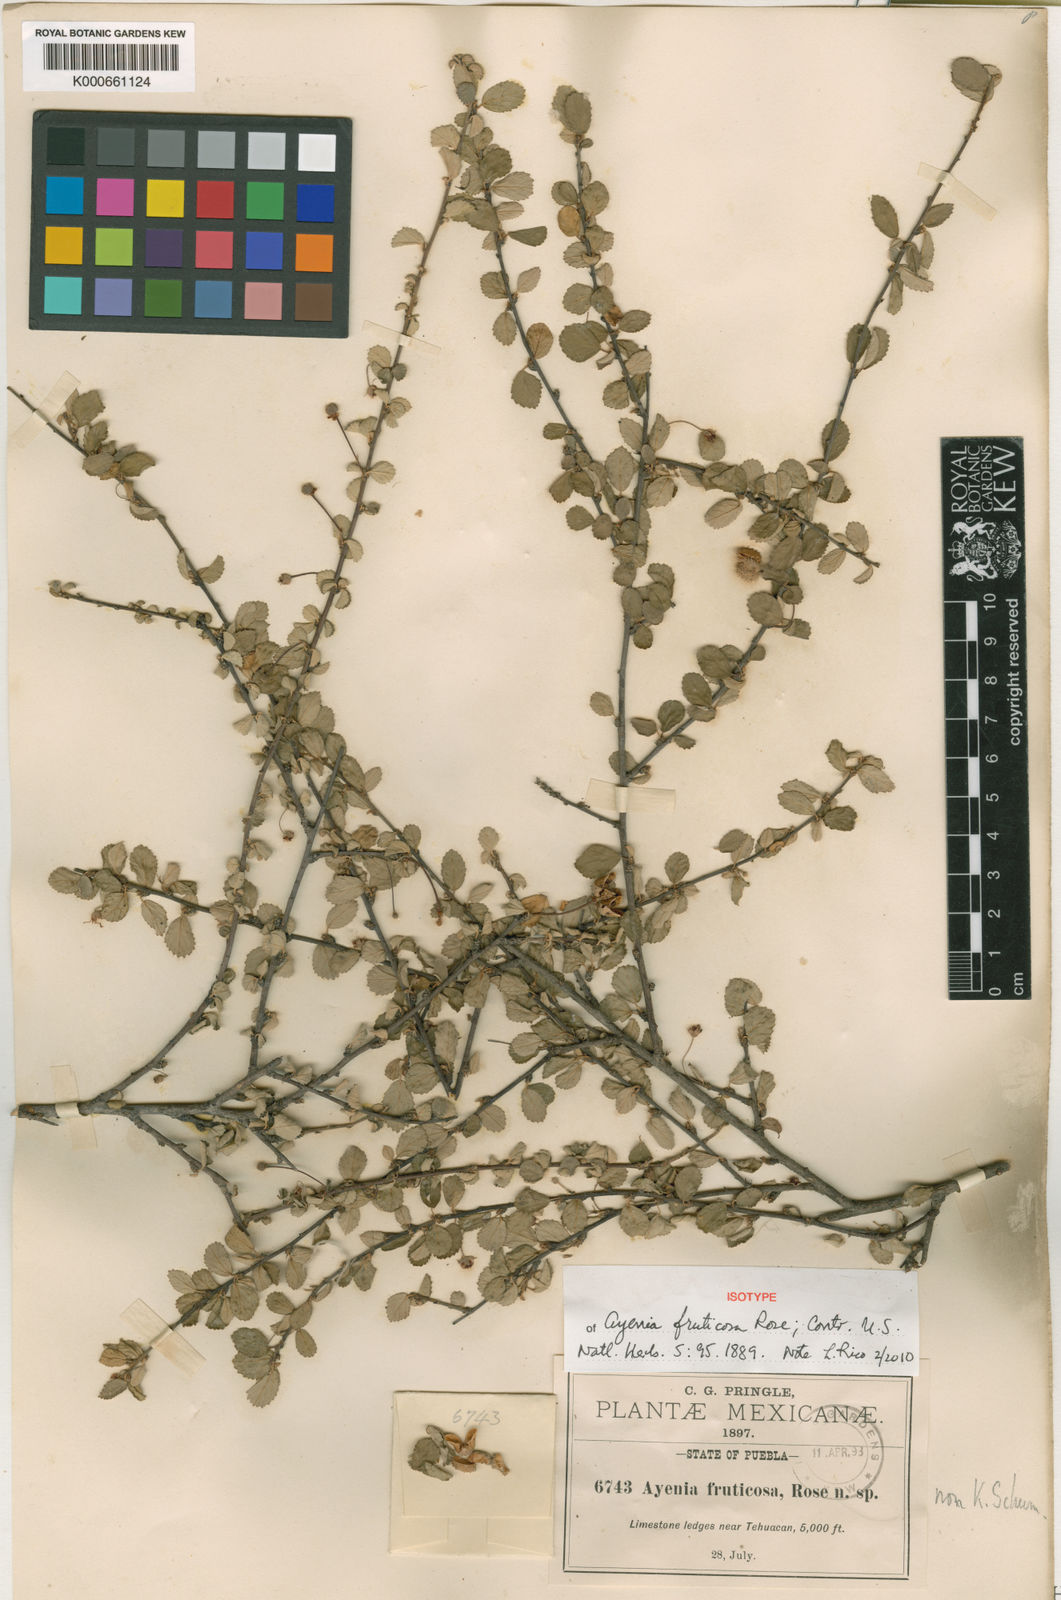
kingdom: Plantae
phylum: Tracheophyta
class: Magnoliopsida
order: Malvales
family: Malvaceae
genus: Ayenia
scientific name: Ayenia fruticosa
